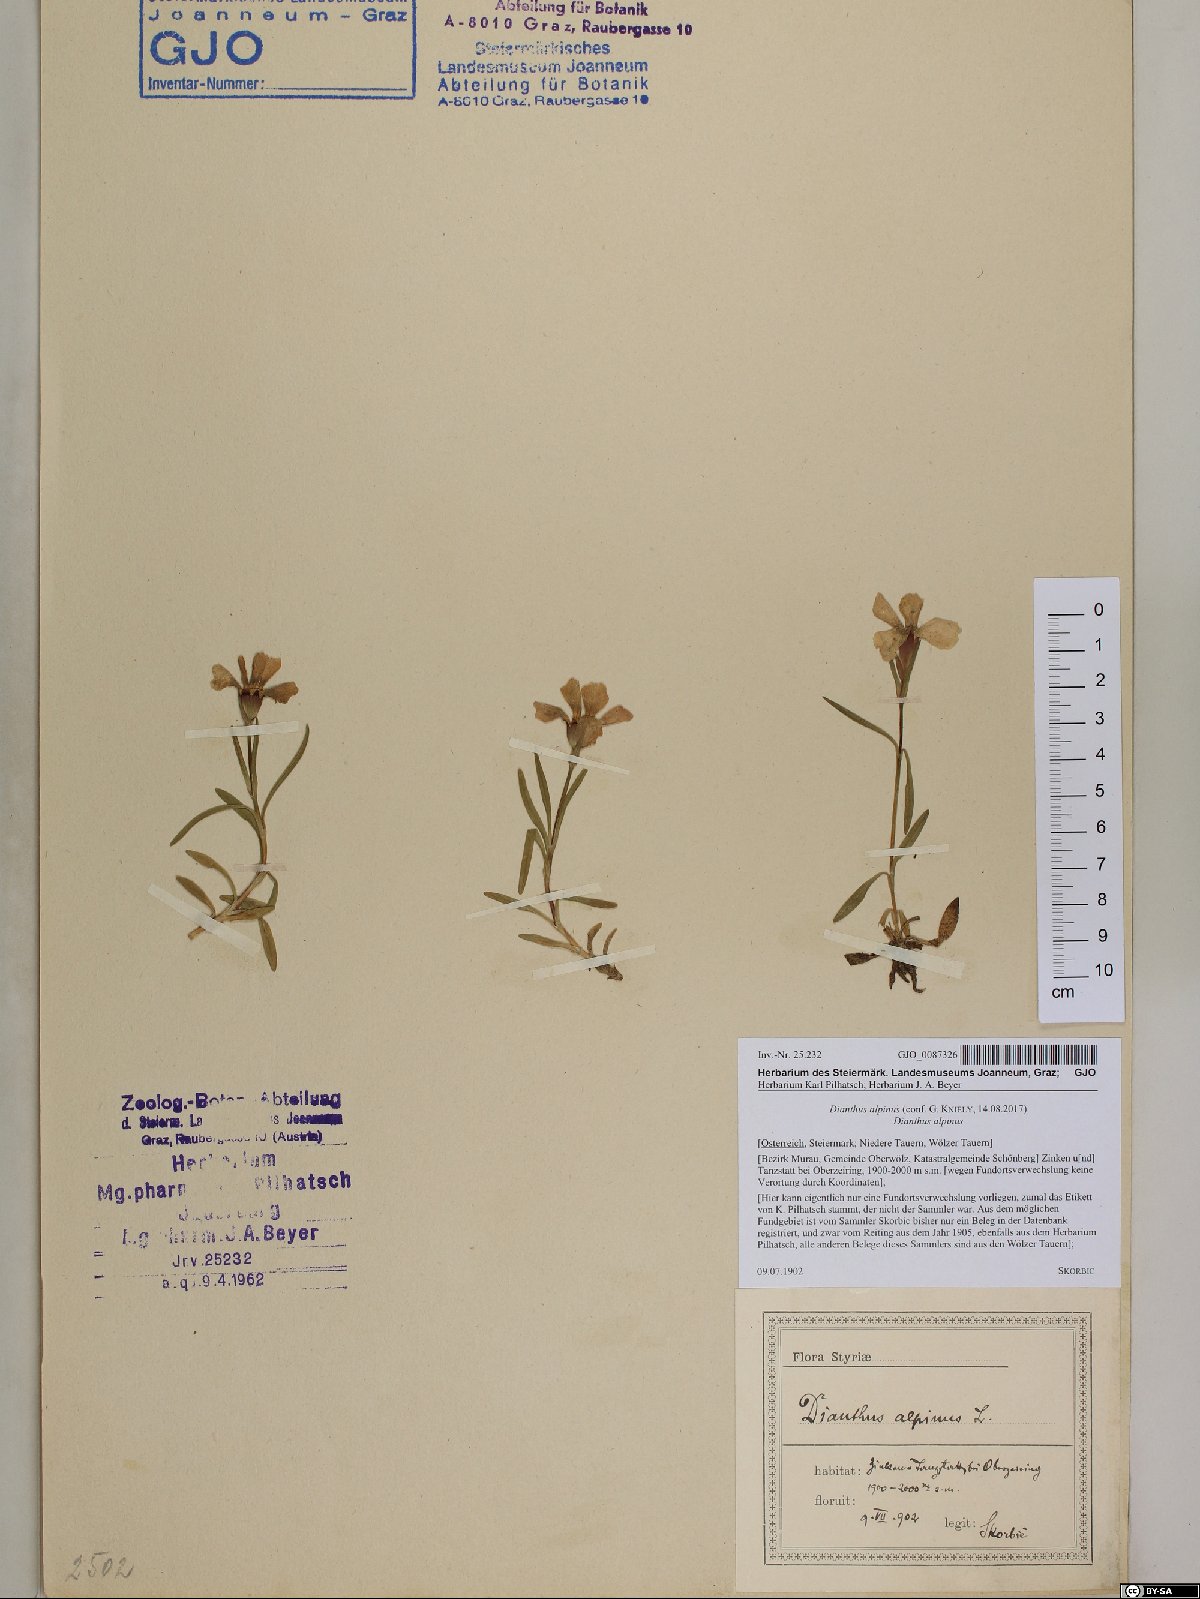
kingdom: Plantae
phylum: Tracheophyta
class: Magnoliopsida
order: Caryophyllales
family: Caryophyllaceae
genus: Dianthus
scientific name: Dianthus alpinus
